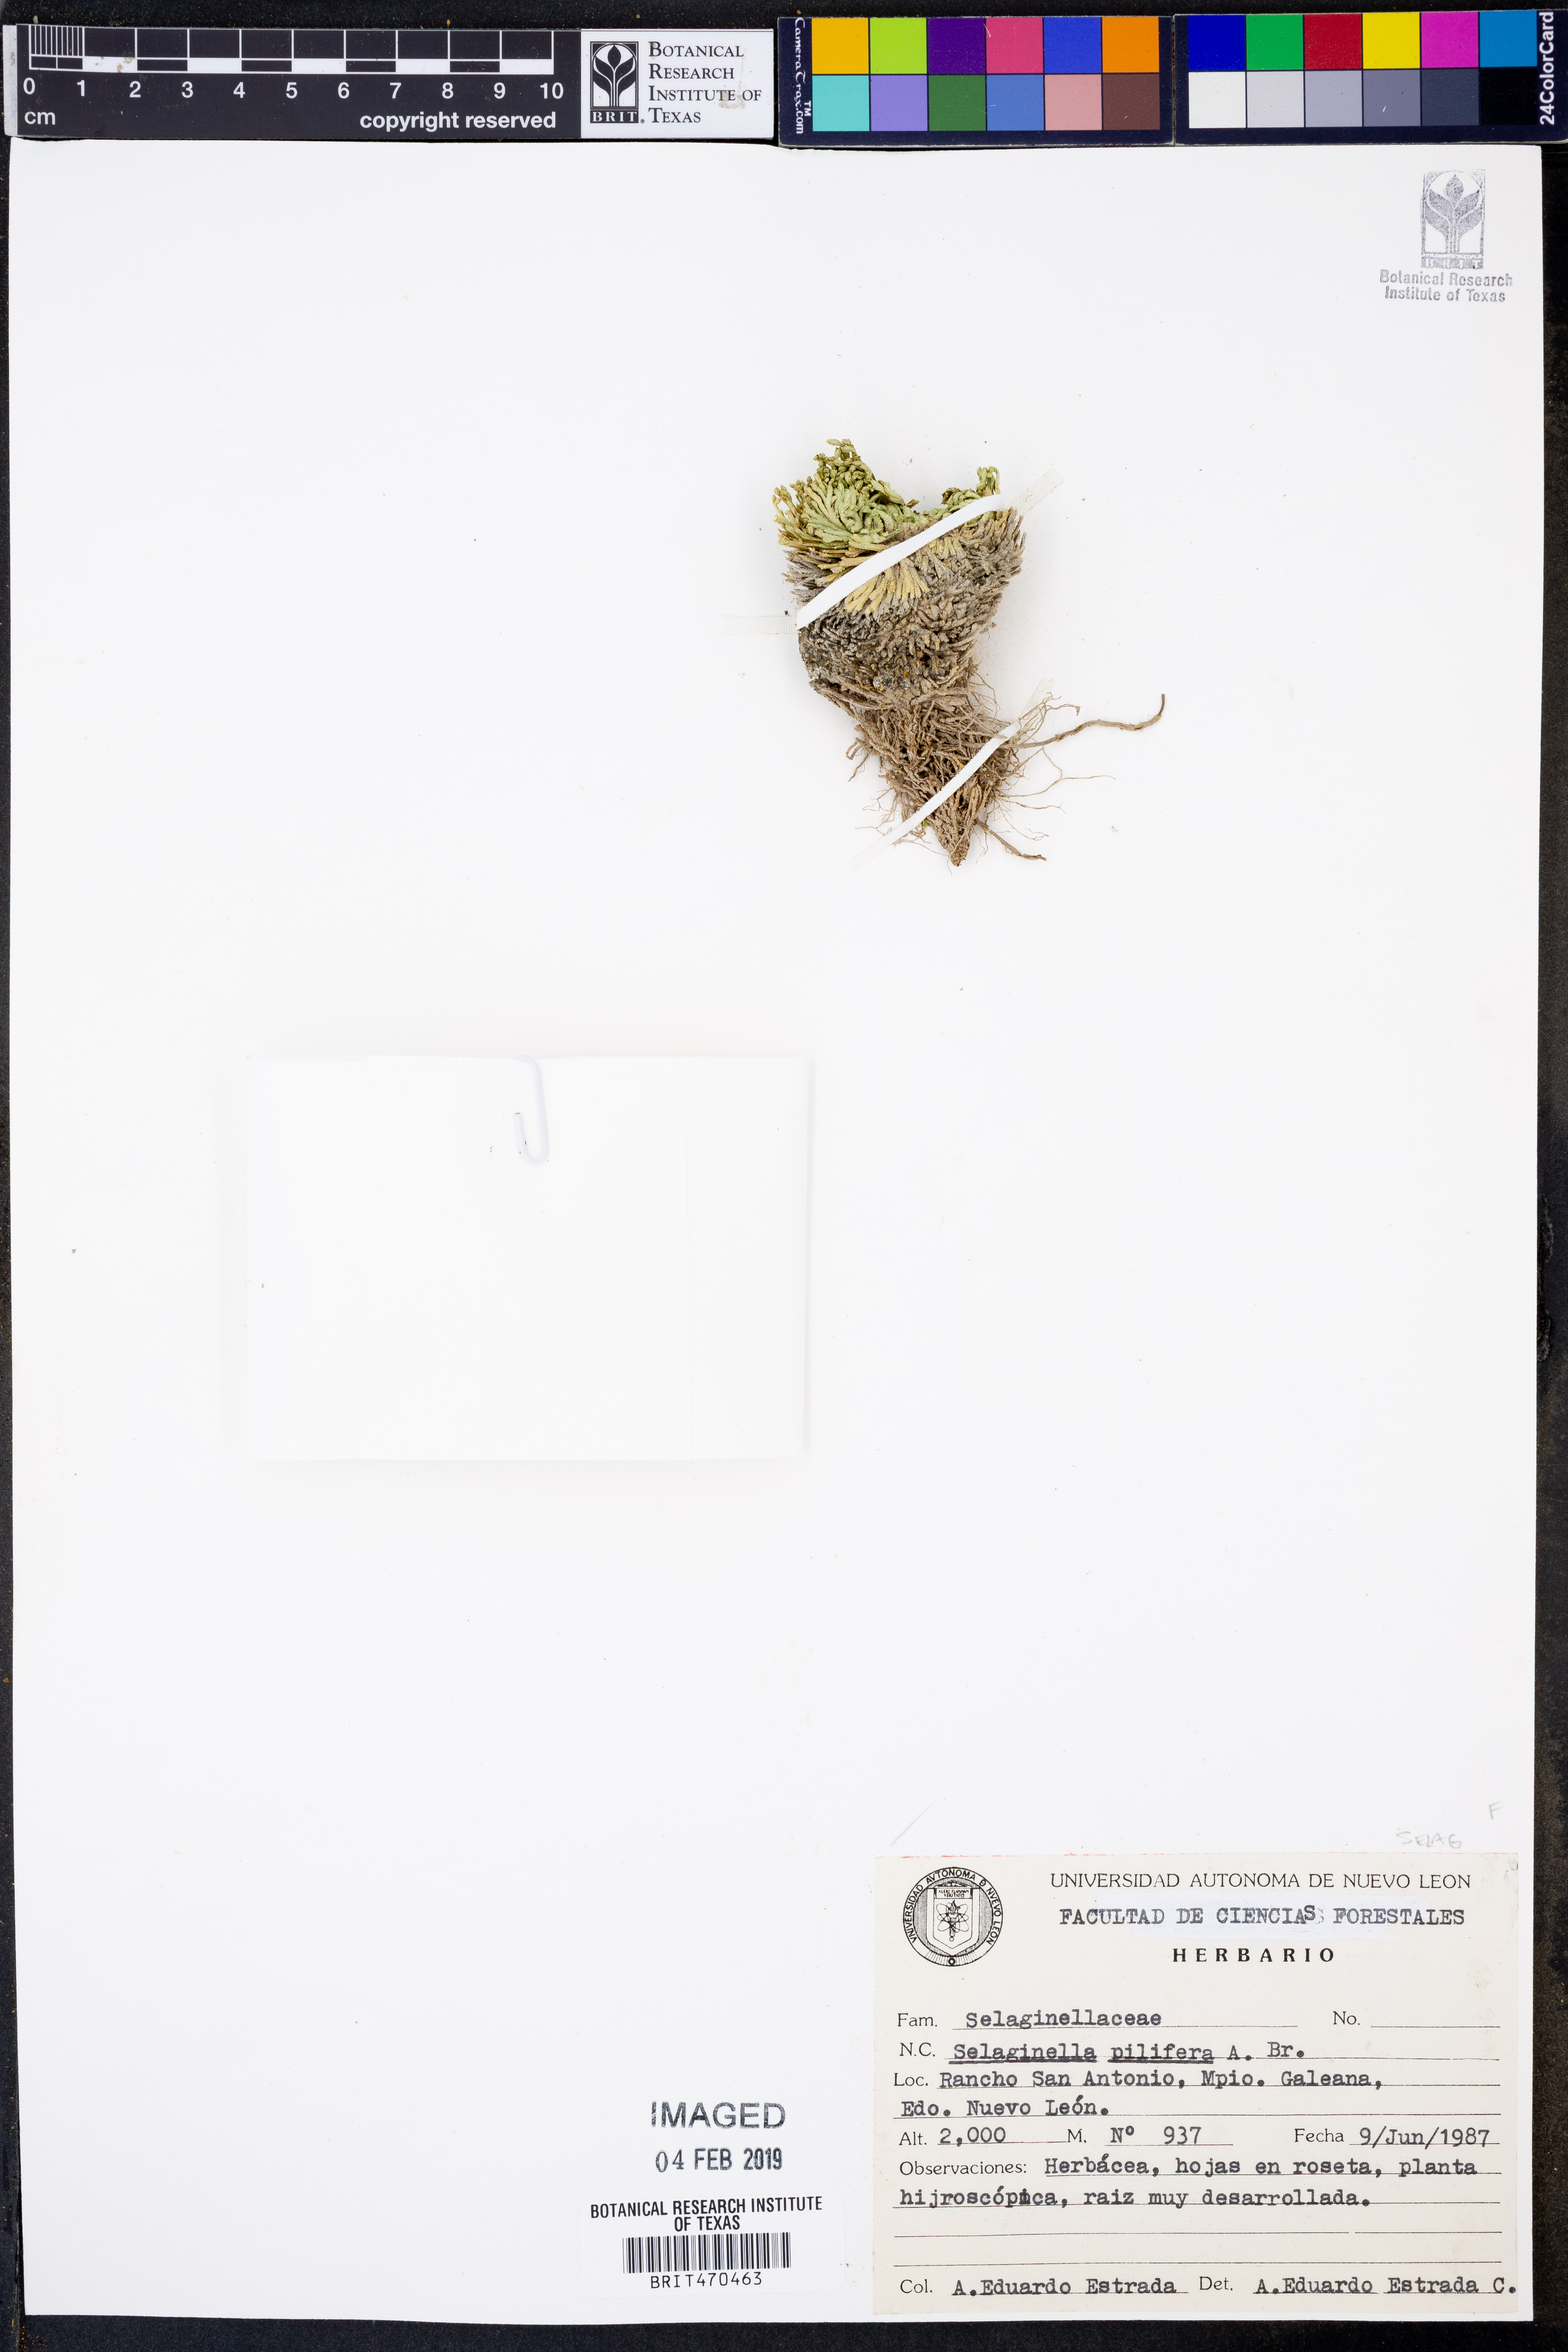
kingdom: Plantae
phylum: Tracheophyta
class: Lycopodiopsida
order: Selaginellales
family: Selaginellaceae
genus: Selaginella
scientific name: Selaginella pilifera
